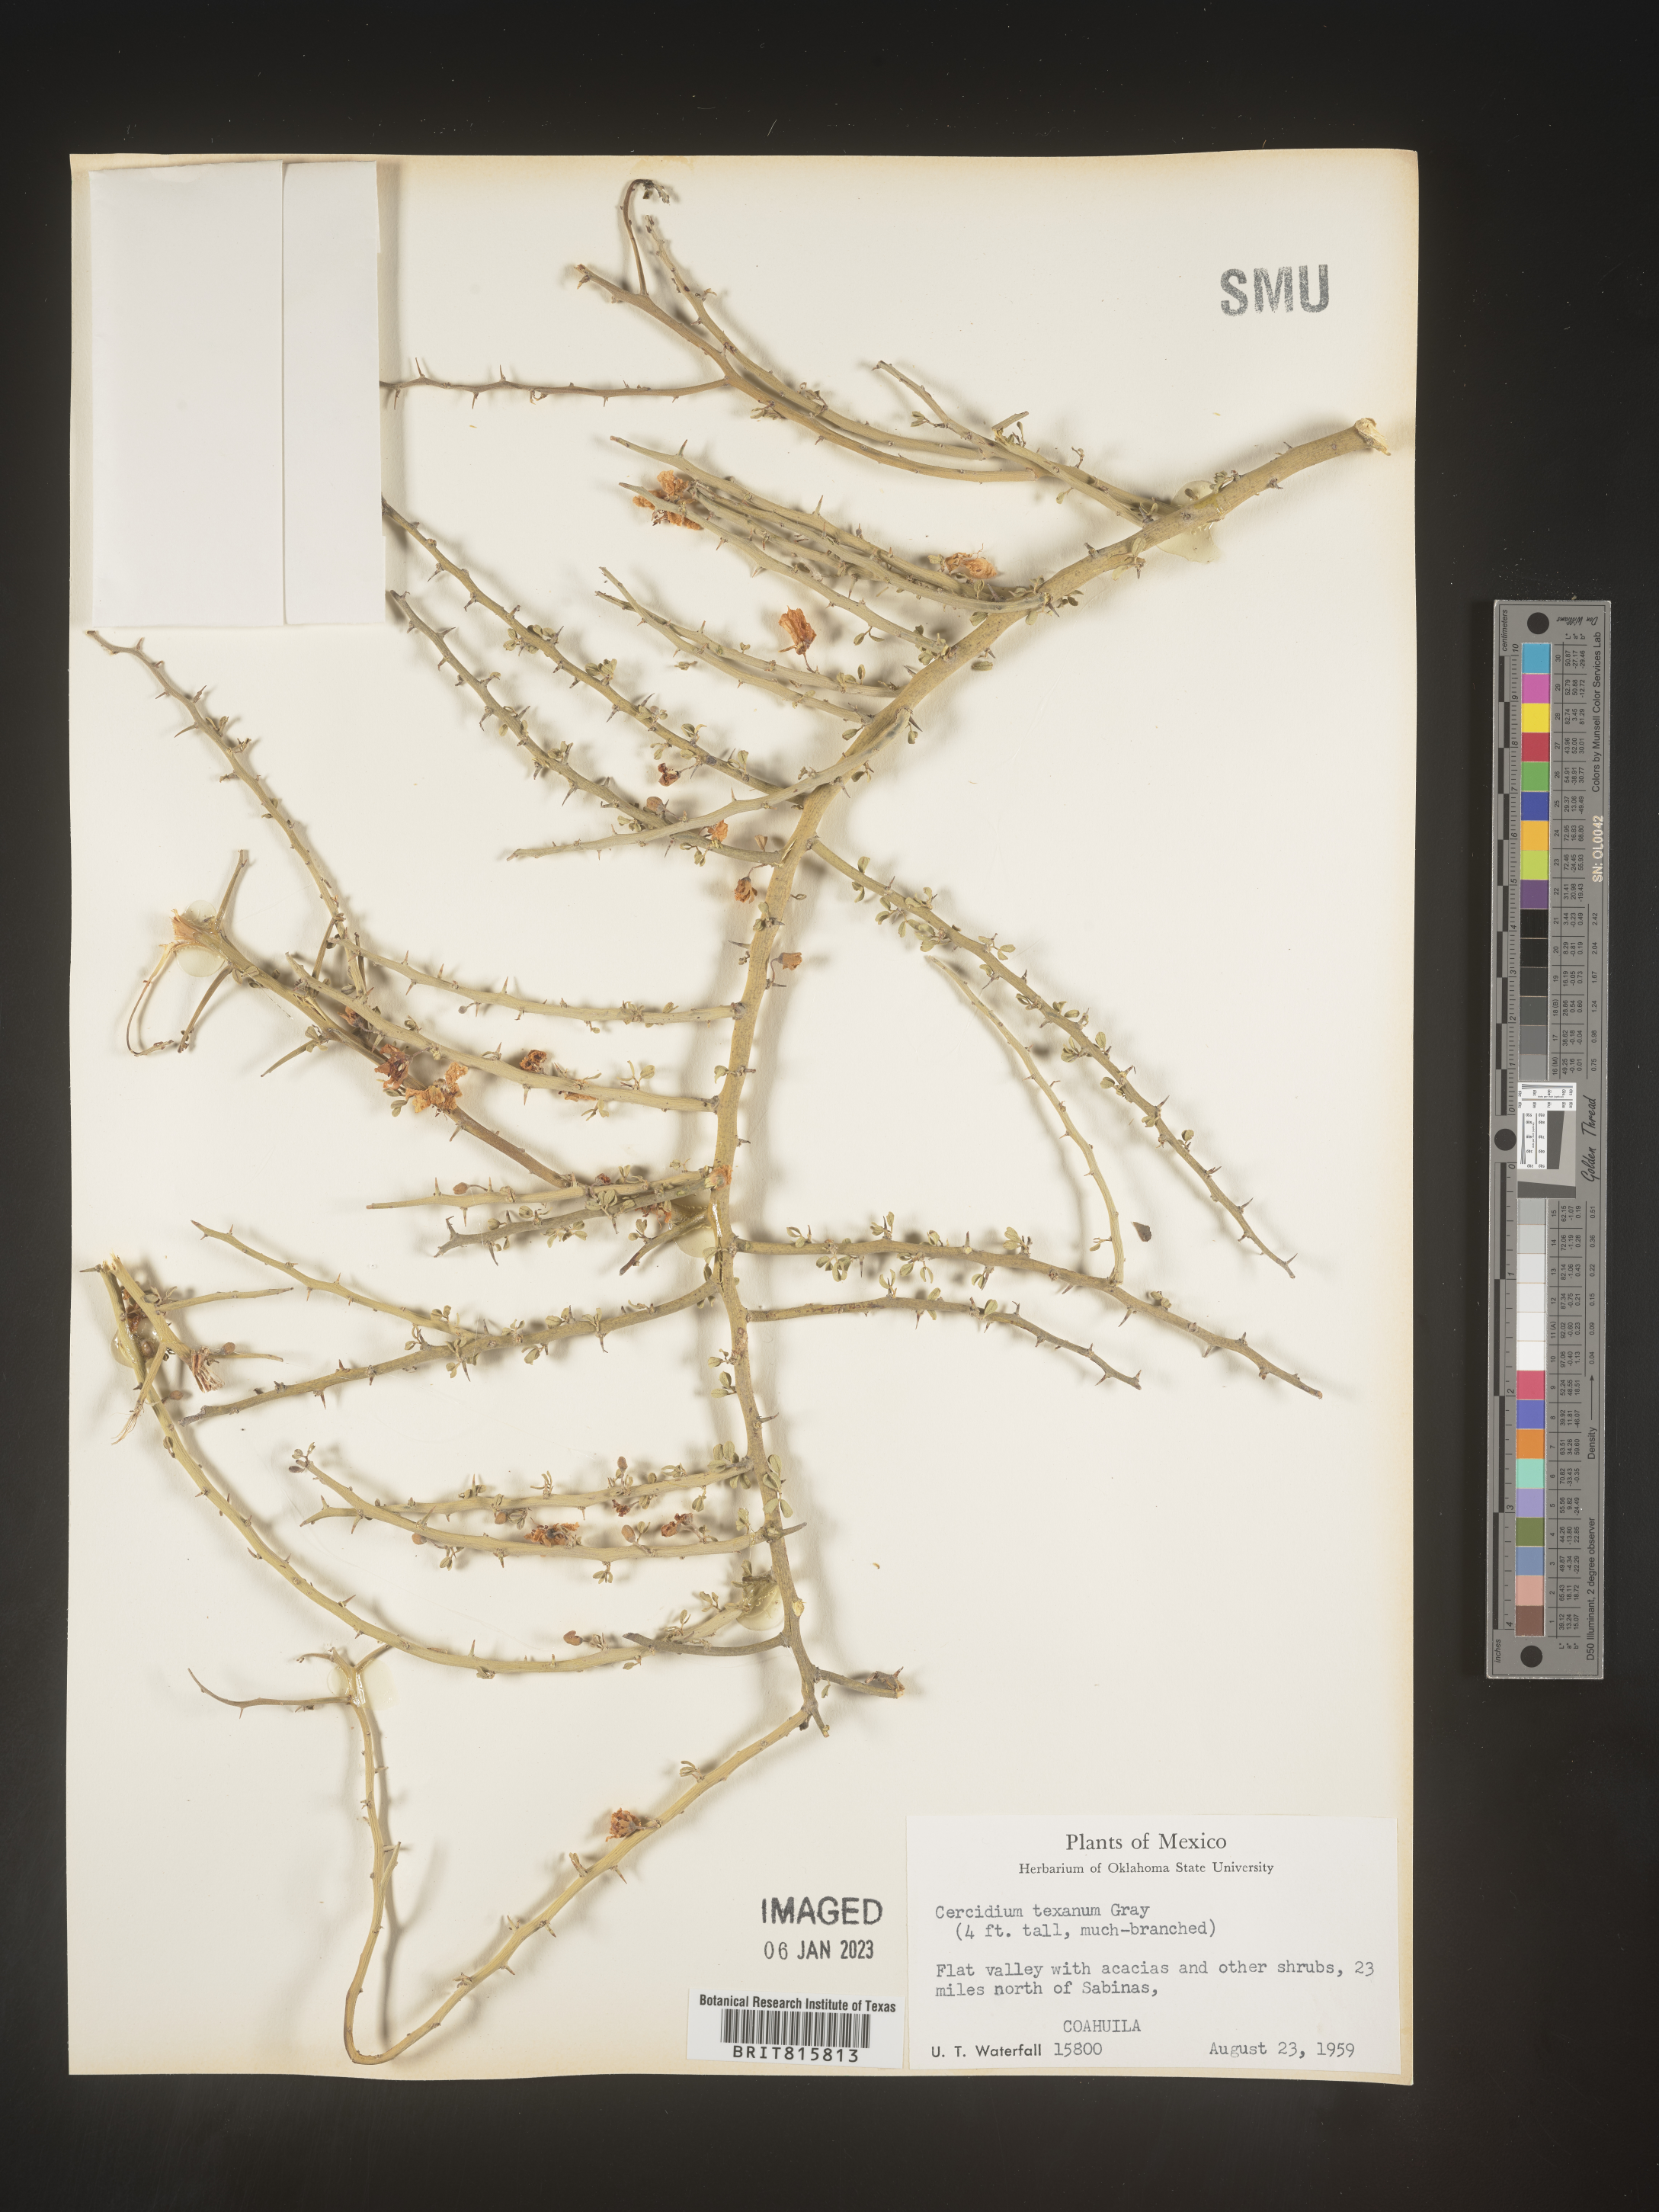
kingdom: Plantae
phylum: Chlorophyta
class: Chlorophyceae
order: Volvocales
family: Chlamydomonadaceae
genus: Cercidium
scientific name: Cercidium
